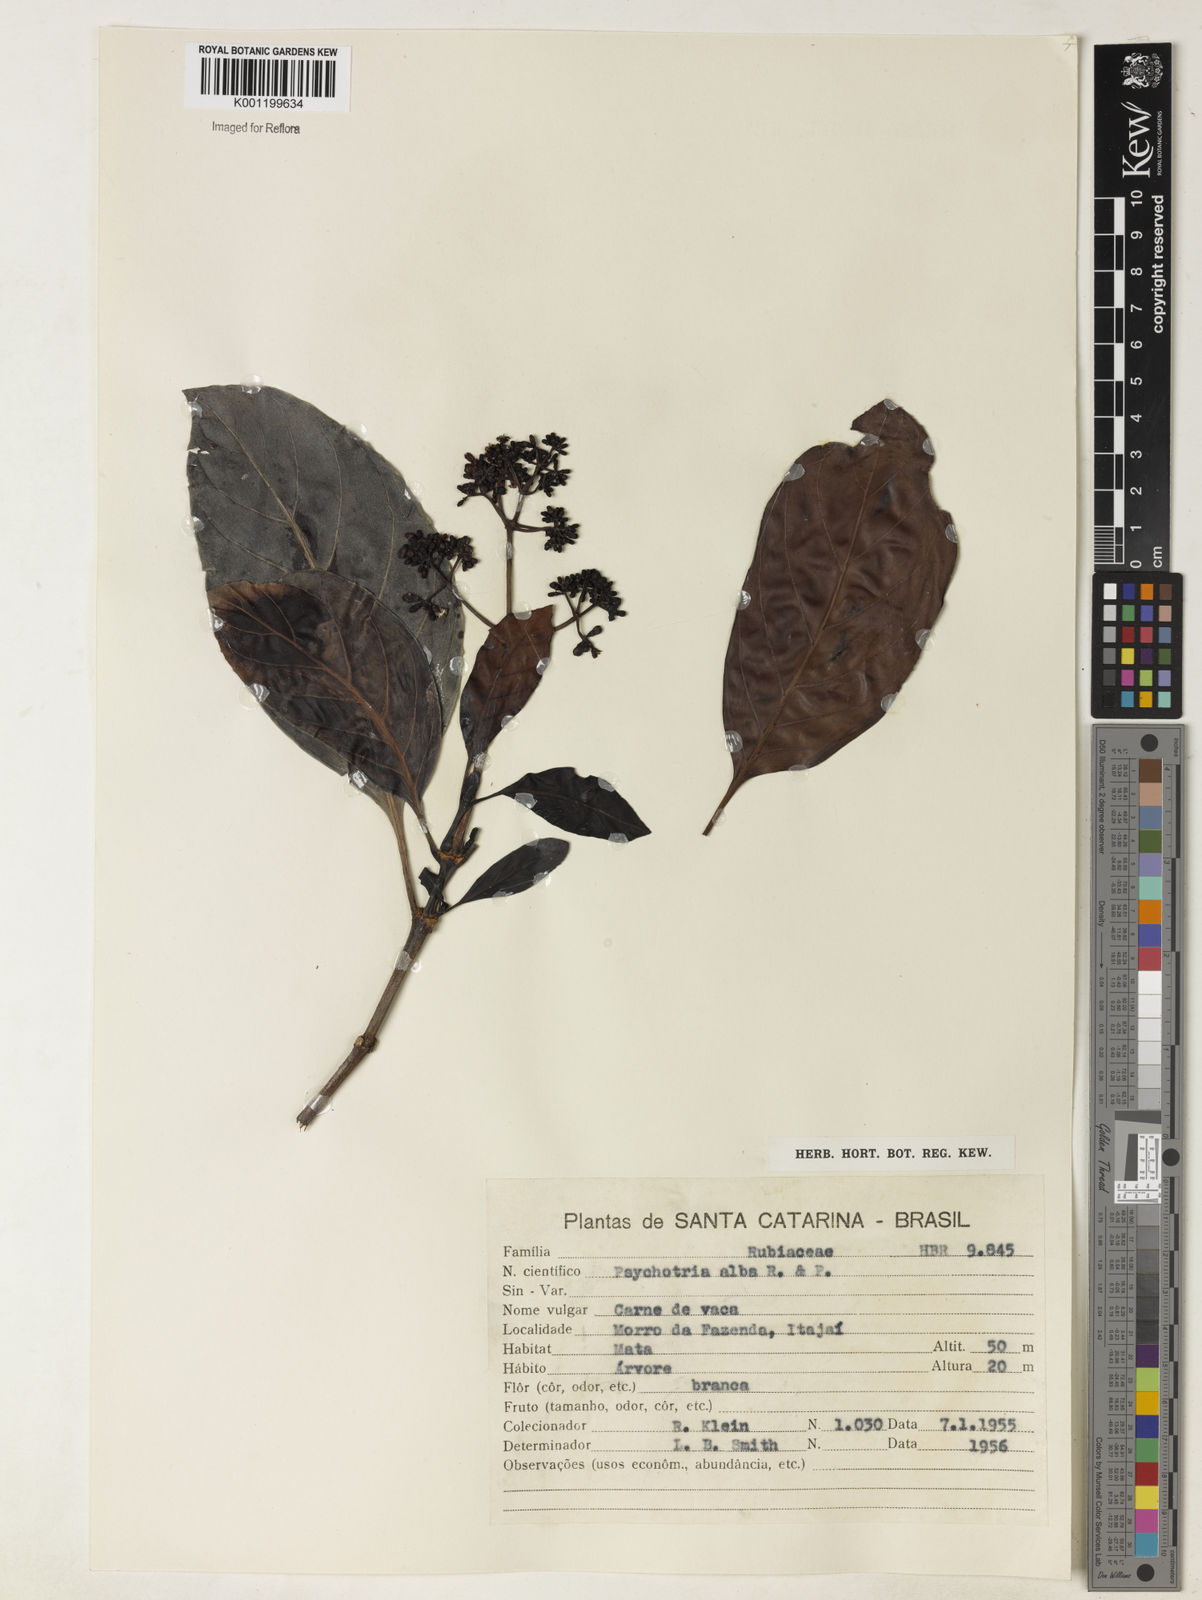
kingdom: Plantae
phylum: Tracheophyta
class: Magnoliopsida
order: Gentianales
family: Rubiaceae
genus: Psychotria
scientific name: Psychotria carthagenensis
